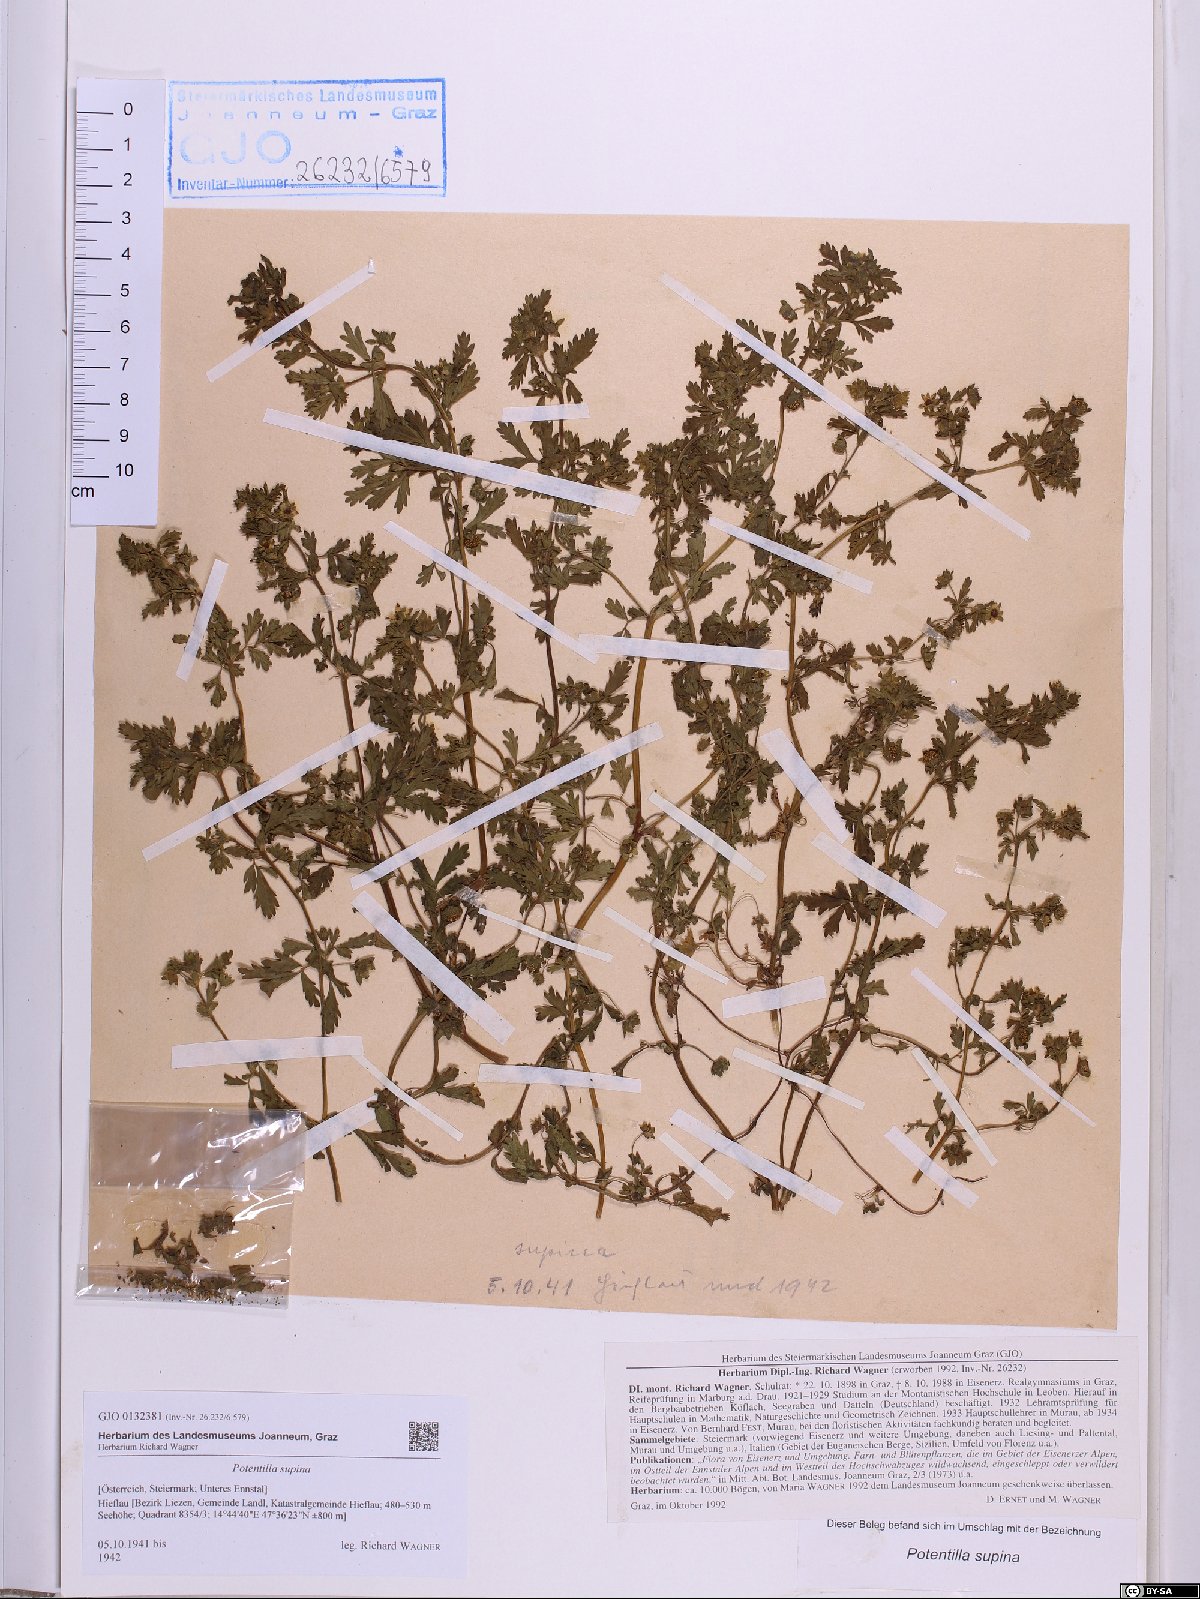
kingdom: Plantae
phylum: Tracheophyta
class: Magnoliopsida
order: Rosales
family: Rosaceae
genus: Potentilla
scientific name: Potentilla supina
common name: Prostrate cinquefoil
